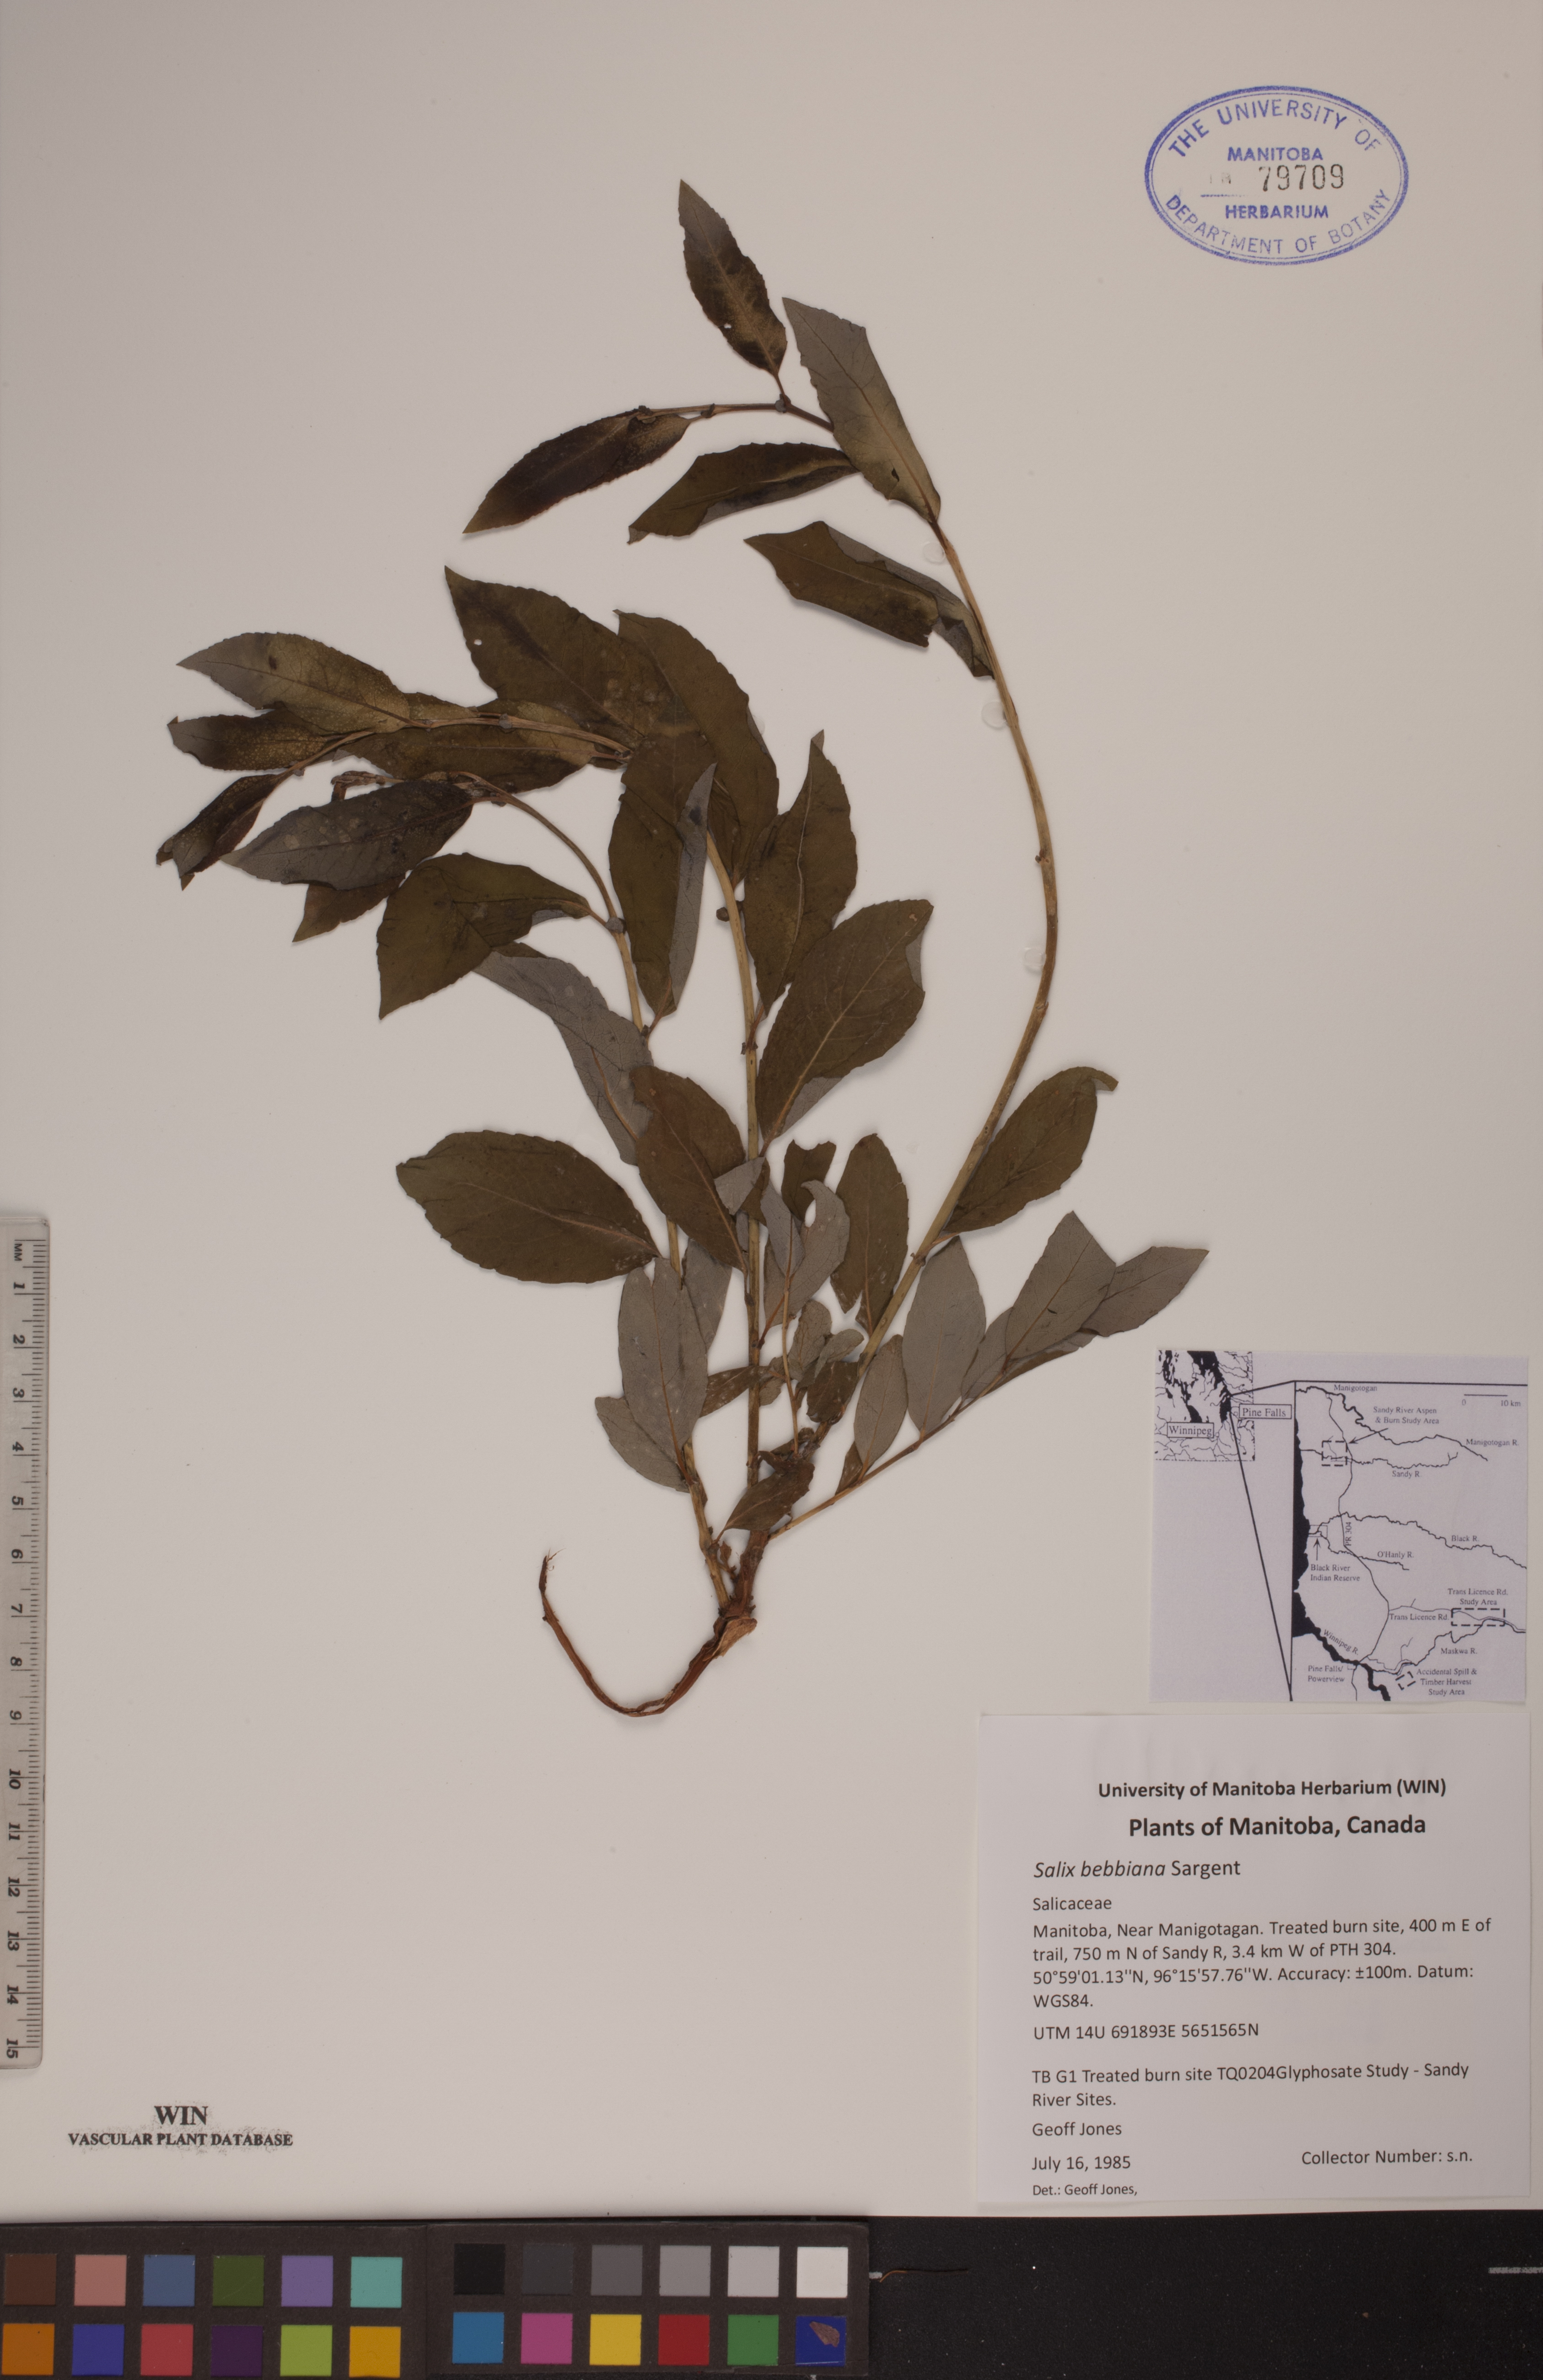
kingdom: Plantae
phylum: Tracheophyta
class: Magnoliopsida
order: Malpighiales
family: Salicaceae
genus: Salix
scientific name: Salix bebbiana
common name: Bebb's willow
